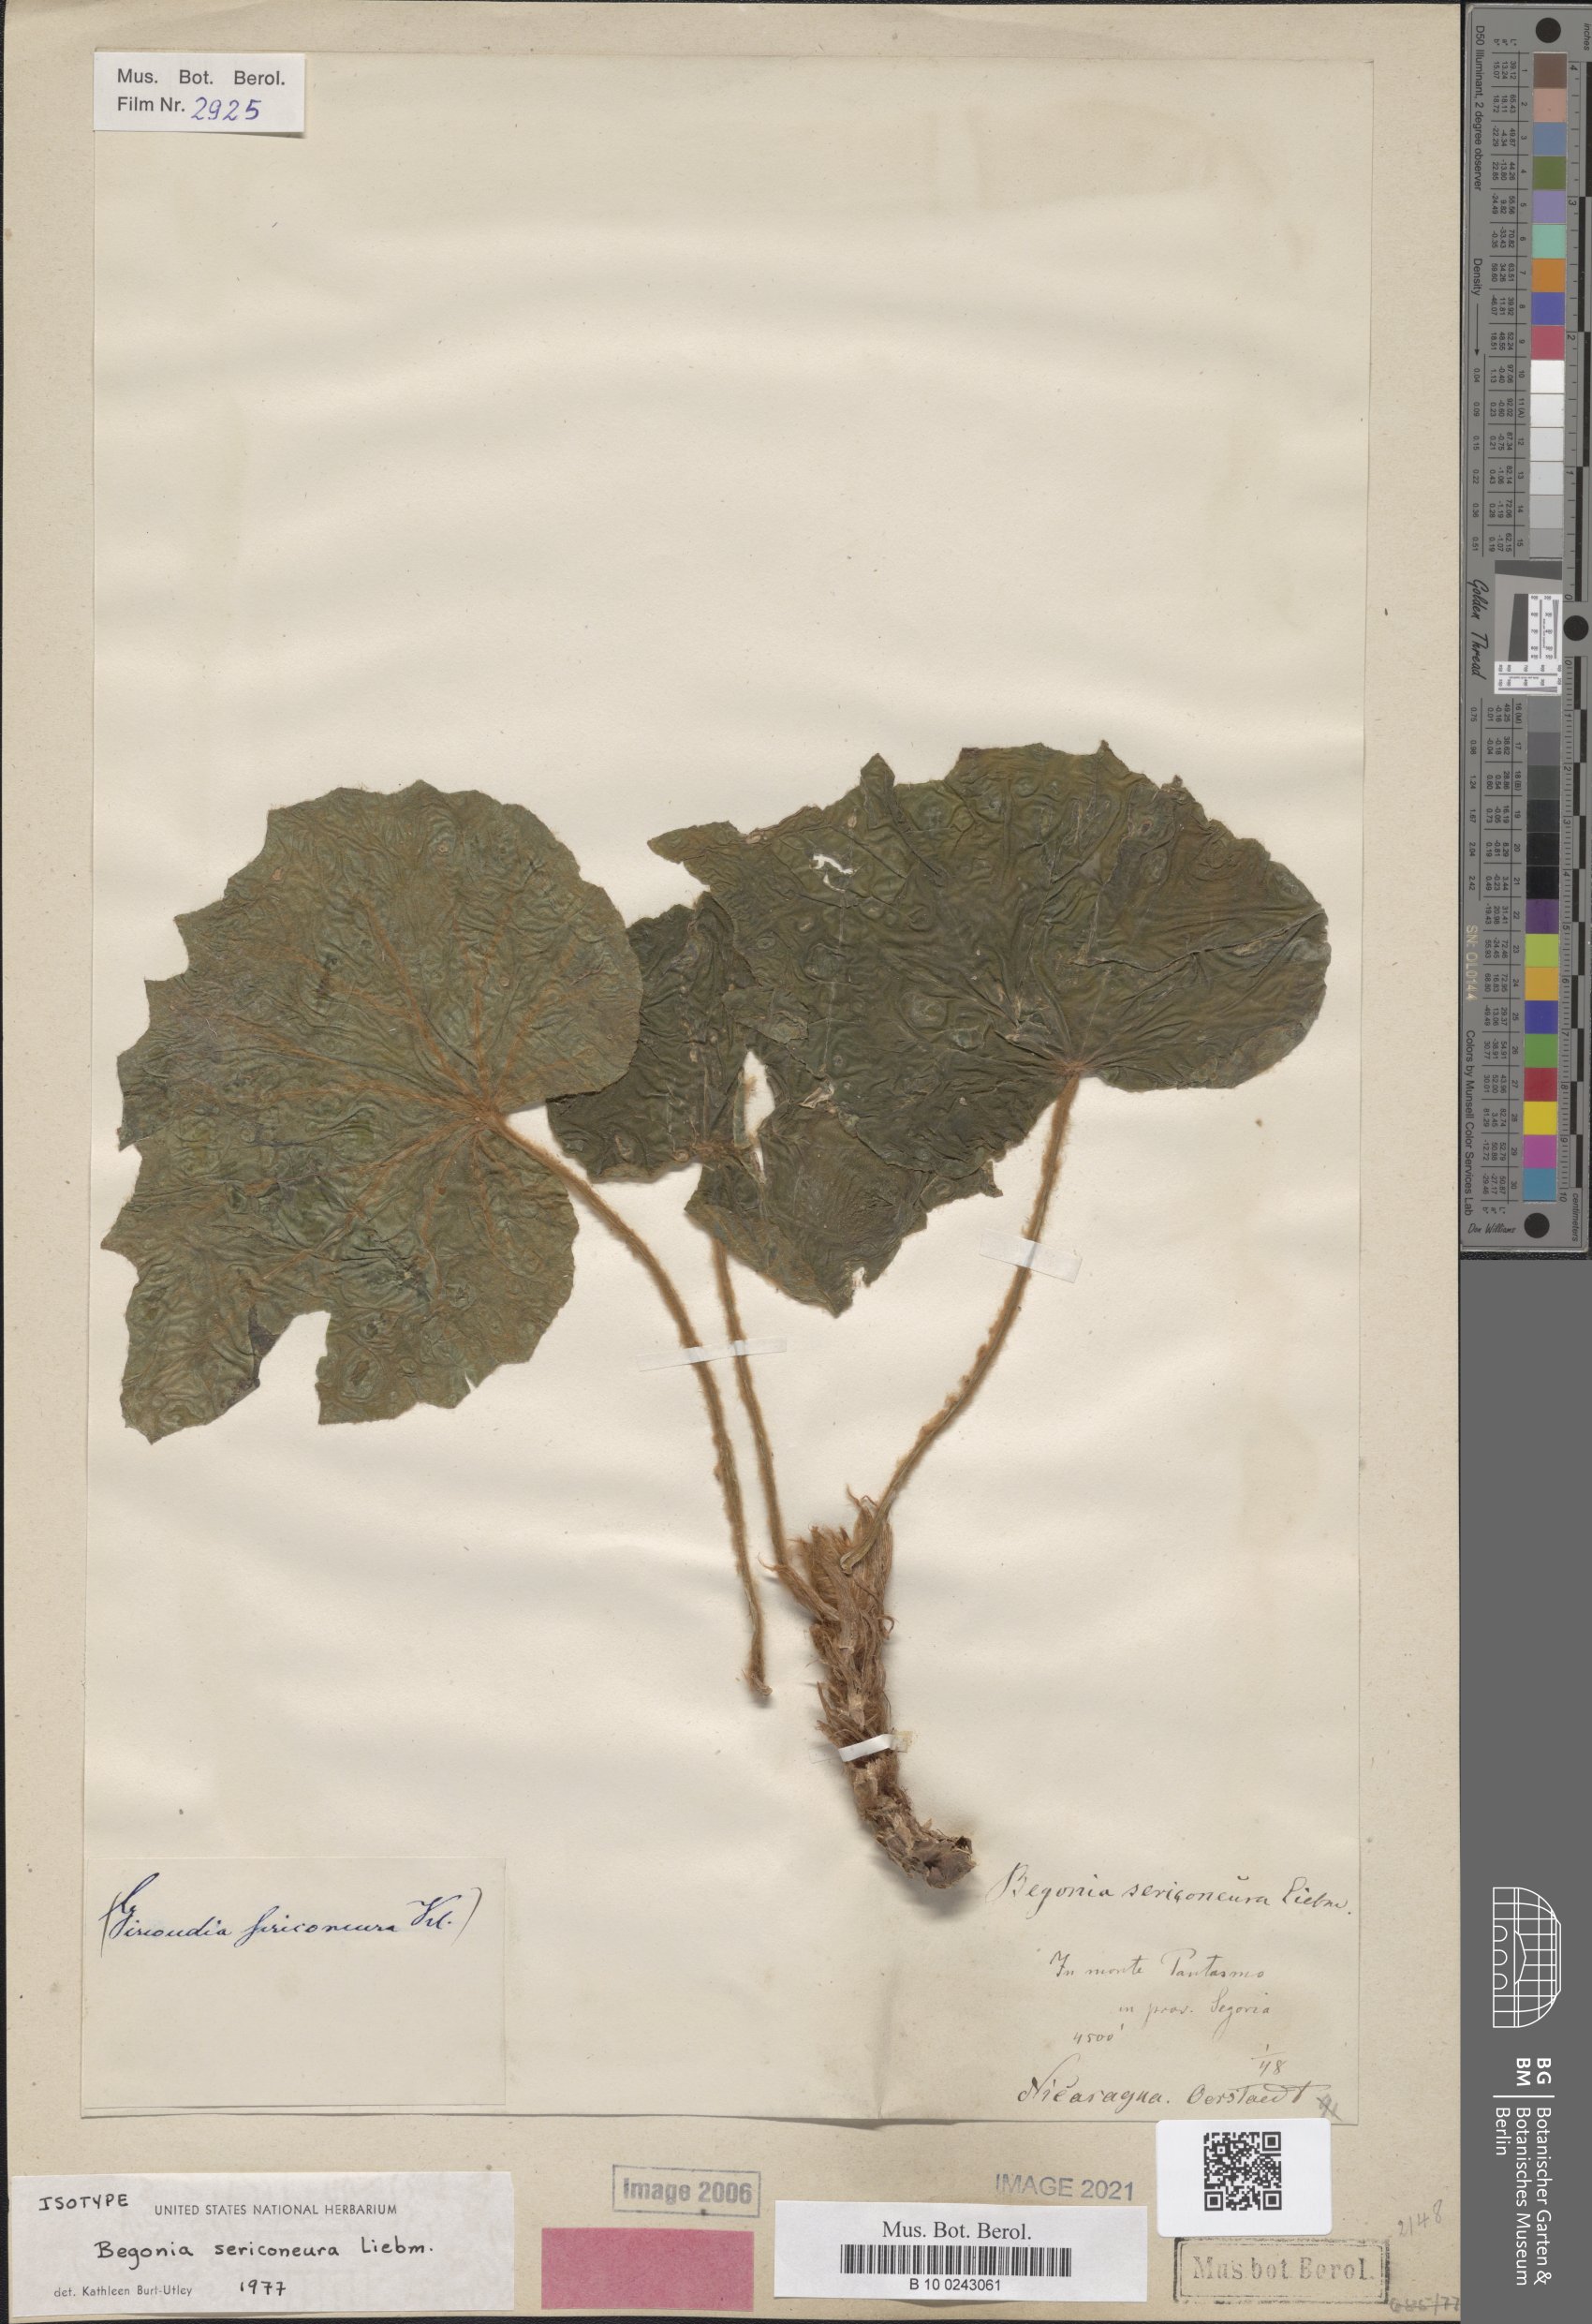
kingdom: Plantae
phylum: Tracheophyta
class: Magnoliopsida
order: Cucurbitales
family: Begoniaceae
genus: Begonia
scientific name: Begonia sericoneura
